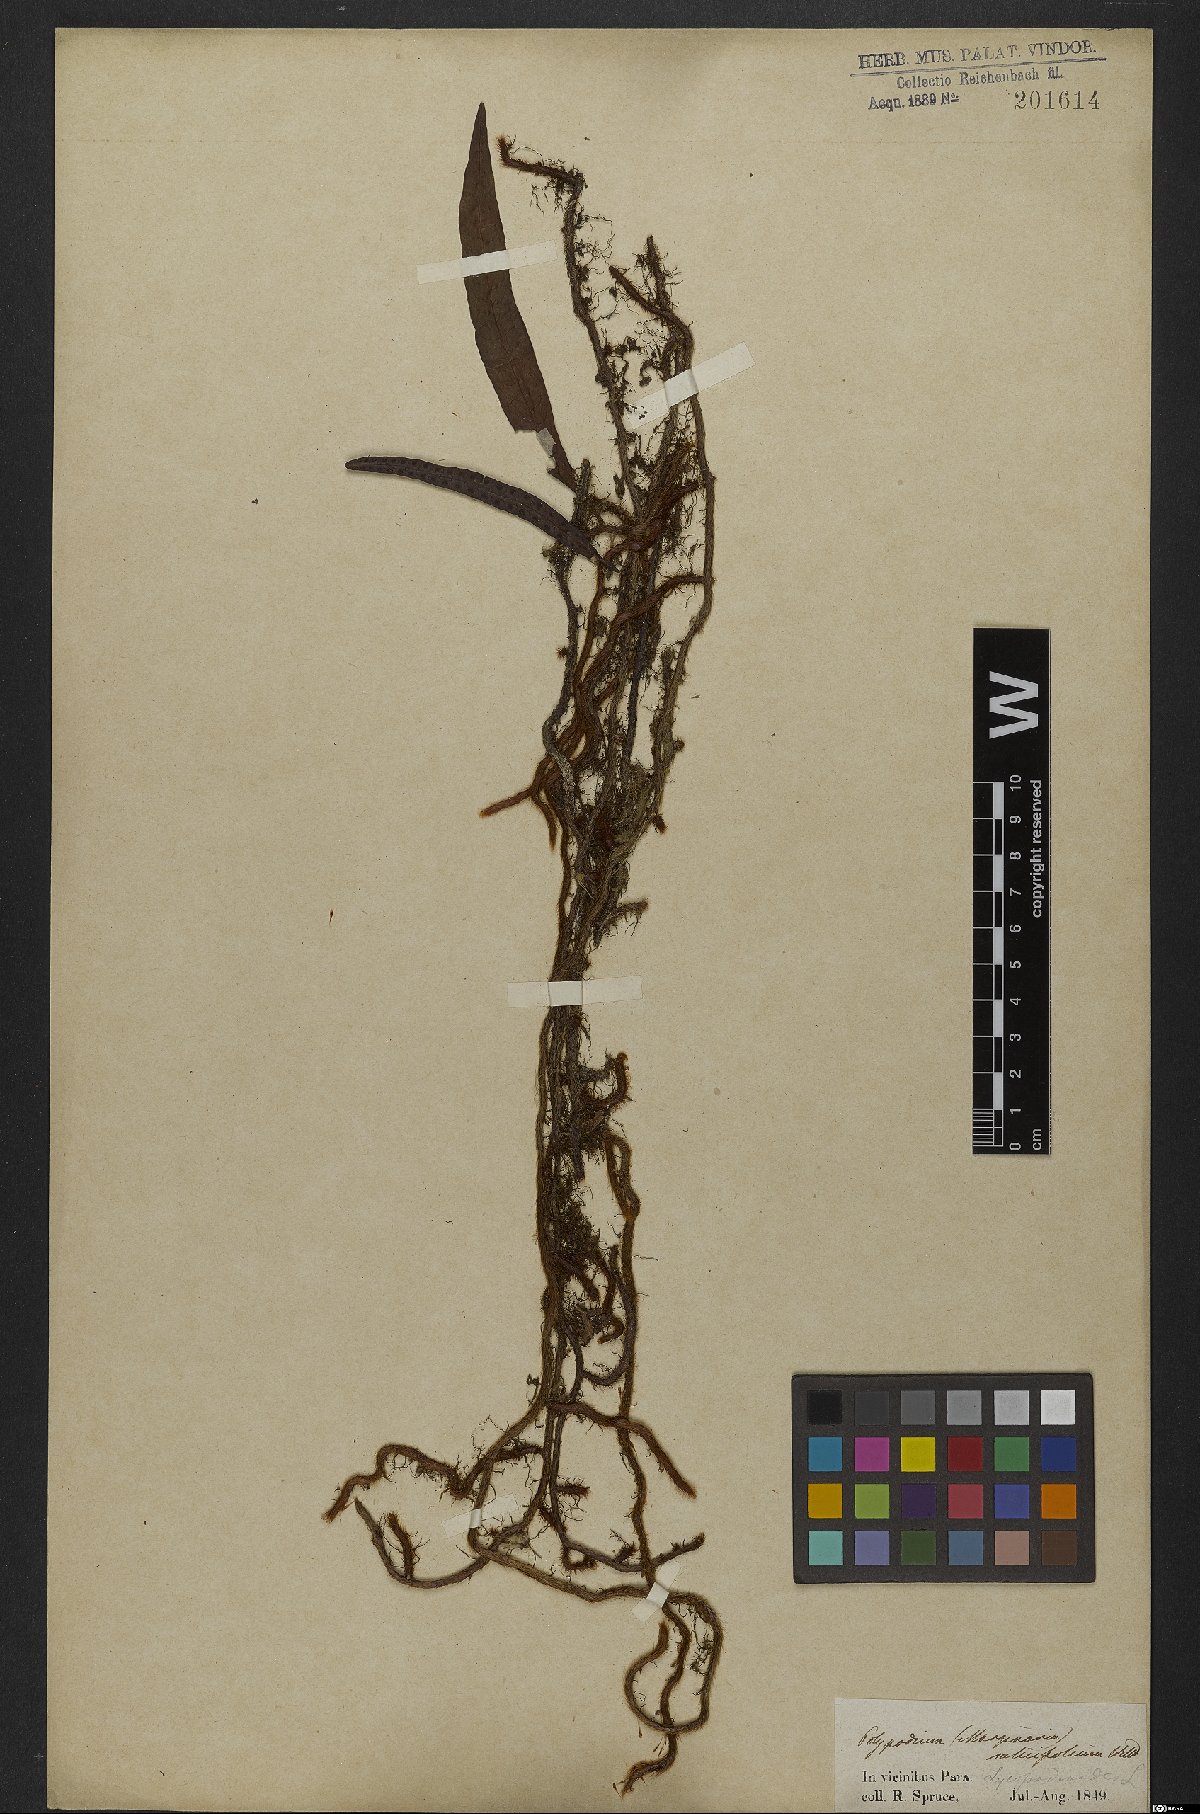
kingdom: Plantae
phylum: Tracheophyta
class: Polypodiopsida
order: Polypodiales
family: Polypodiaceae
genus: Microgramma
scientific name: Microgramma lycopodioides
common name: Bastard catclaw
